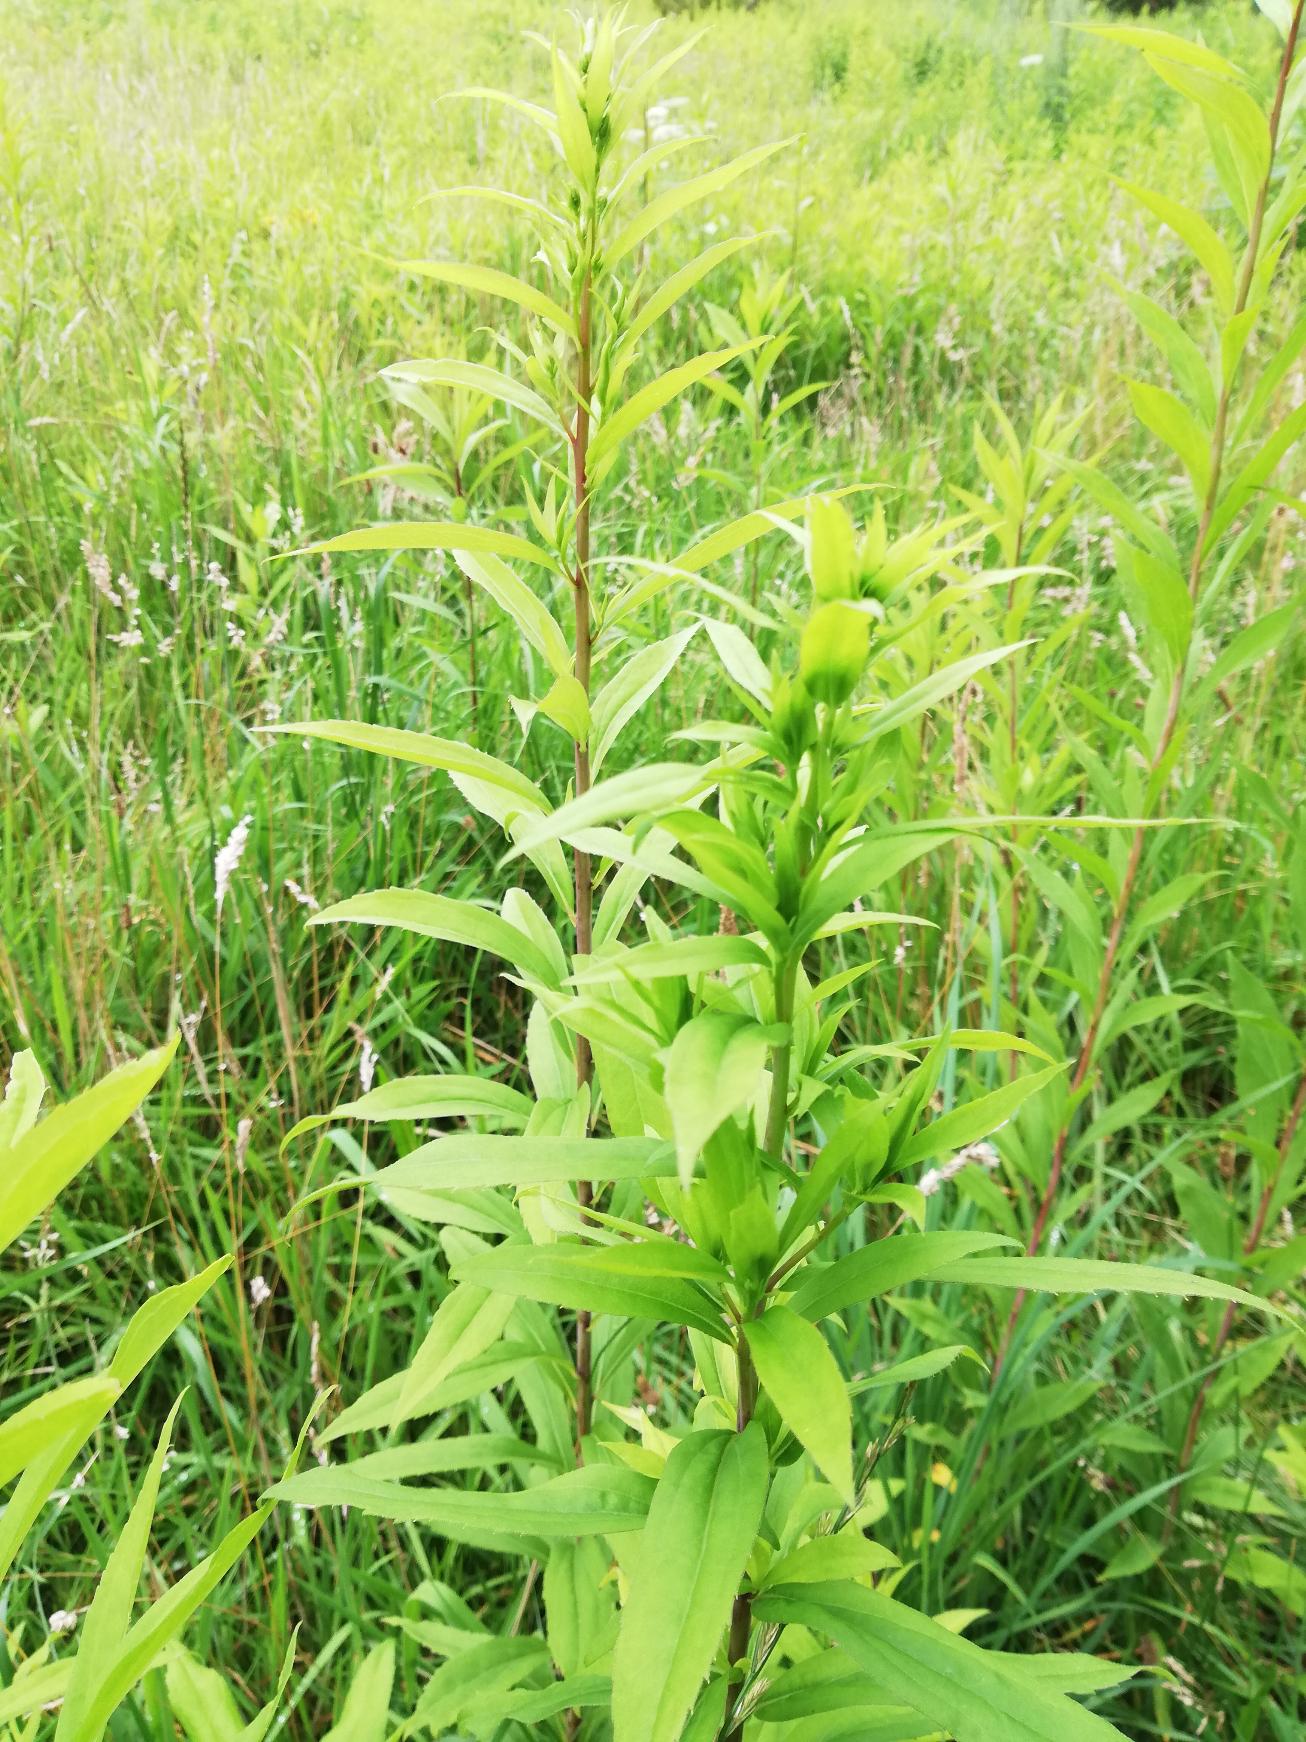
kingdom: Plantae
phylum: Tracheophyta
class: Magnoliopsida
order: Asterales
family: Asteraceae
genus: Solidago
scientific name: Solidago gigantea
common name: Sildig gyldenris
